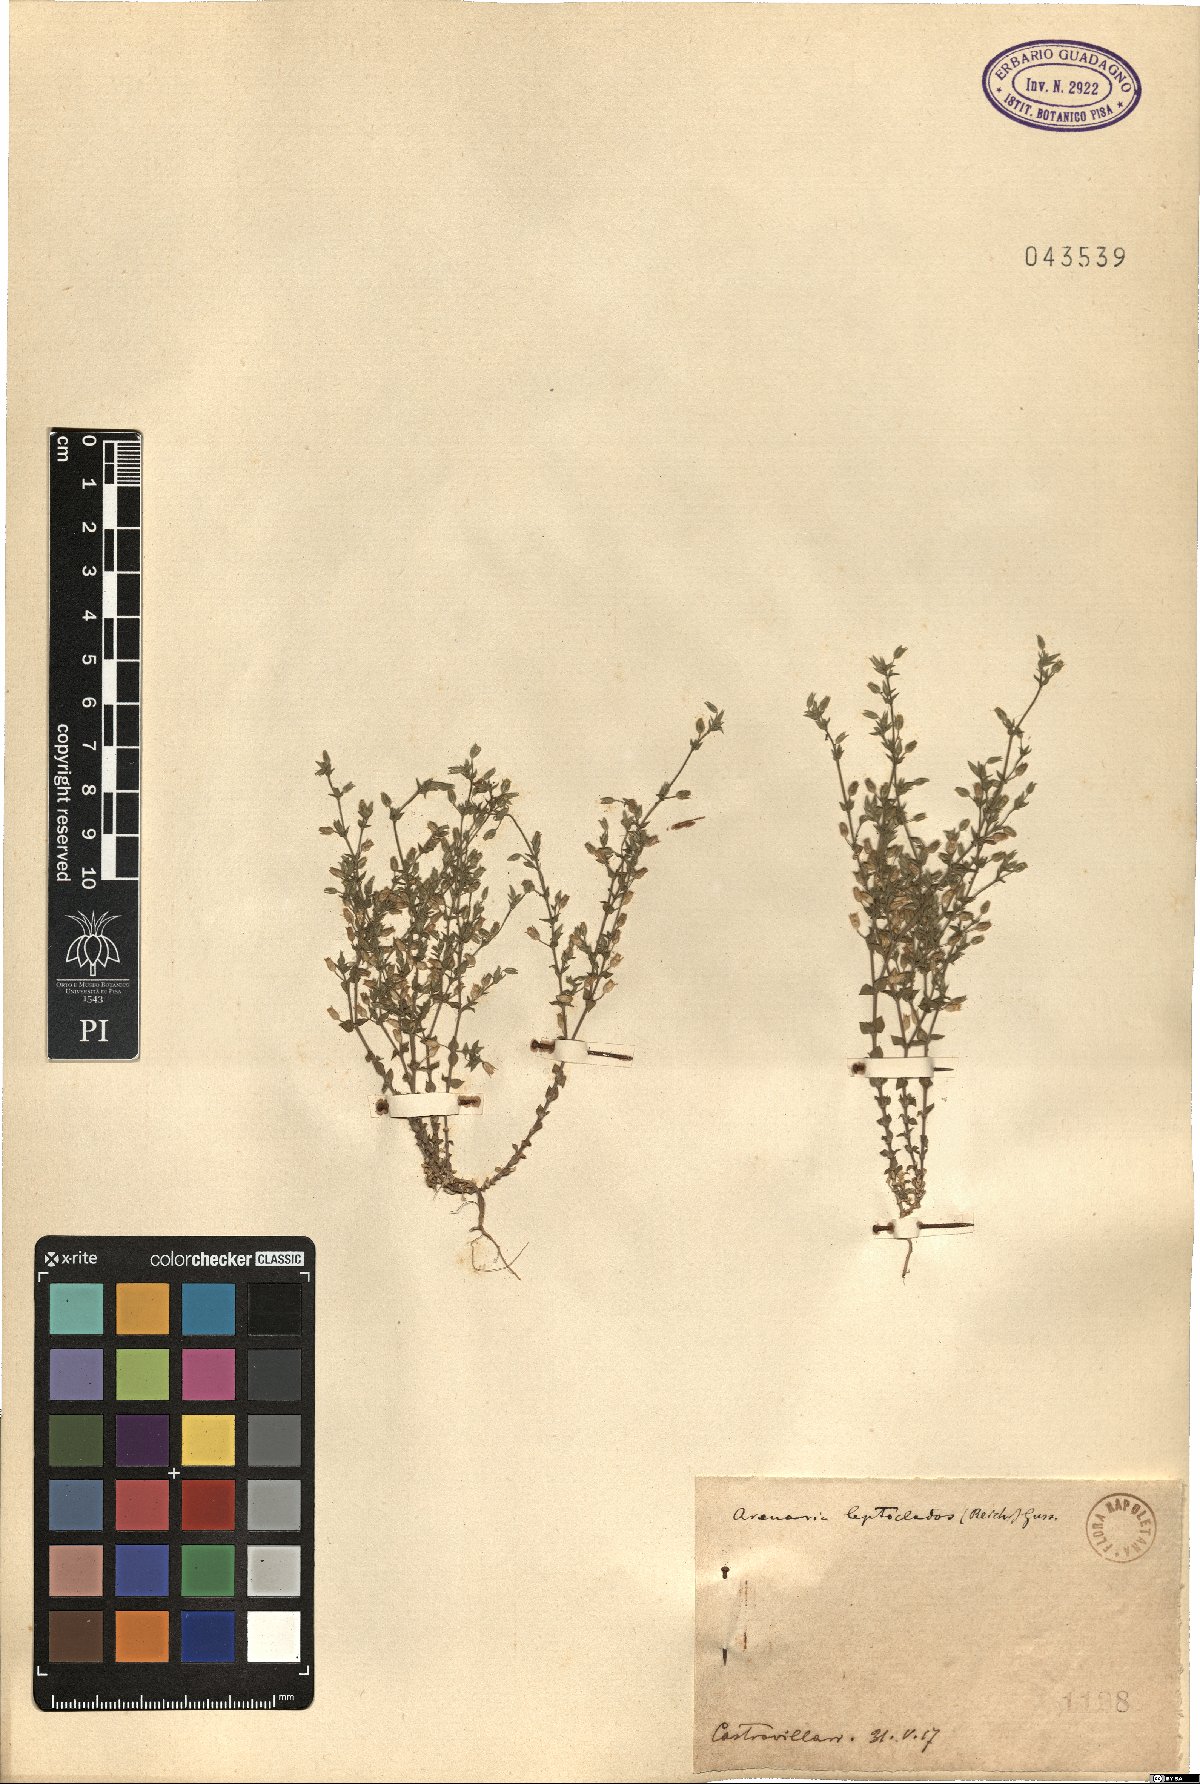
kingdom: Plantae
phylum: Tracheophyta
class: Magnoliopsida
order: Caryophyllales
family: Caryophyllaceae
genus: Arenaria
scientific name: Arenaria leptoclados
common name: Thyme-leaved sandwort
